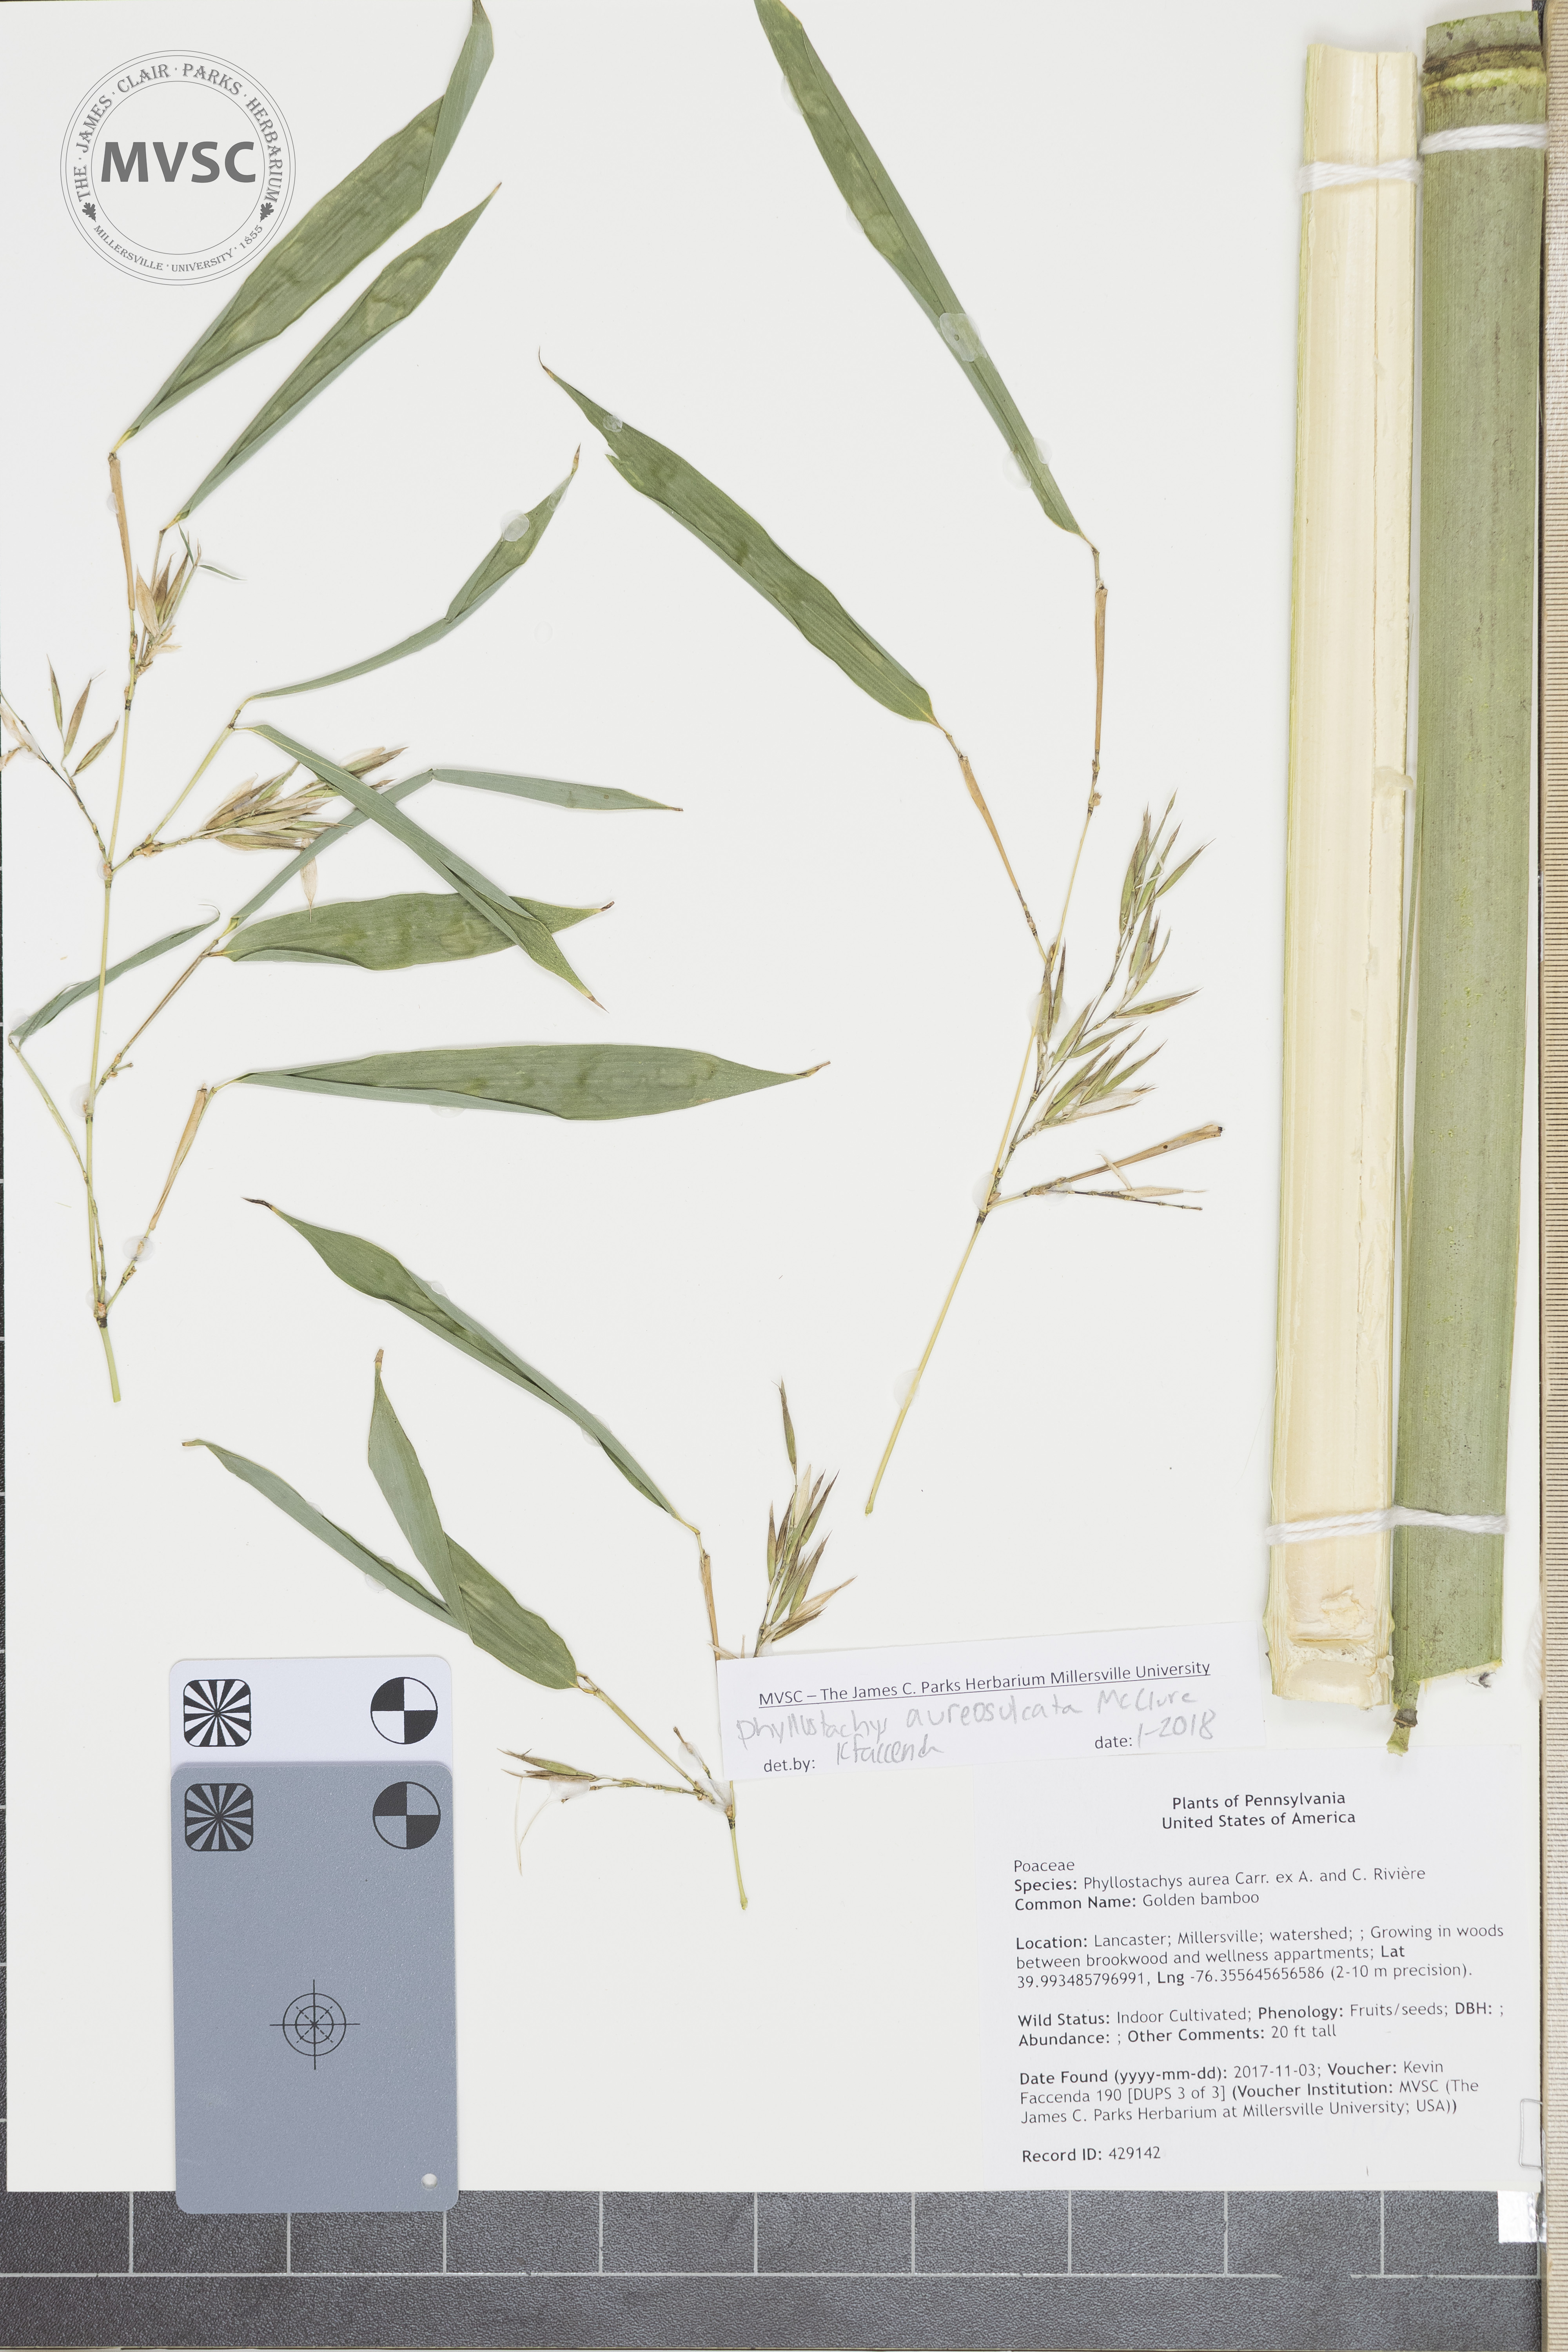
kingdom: Plantae
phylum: Tracheophyta
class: Liliopsida
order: Poales
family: Poaceae
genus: Phyllostachys
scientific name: Phyllostachys aureosulcata
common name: bamboo
